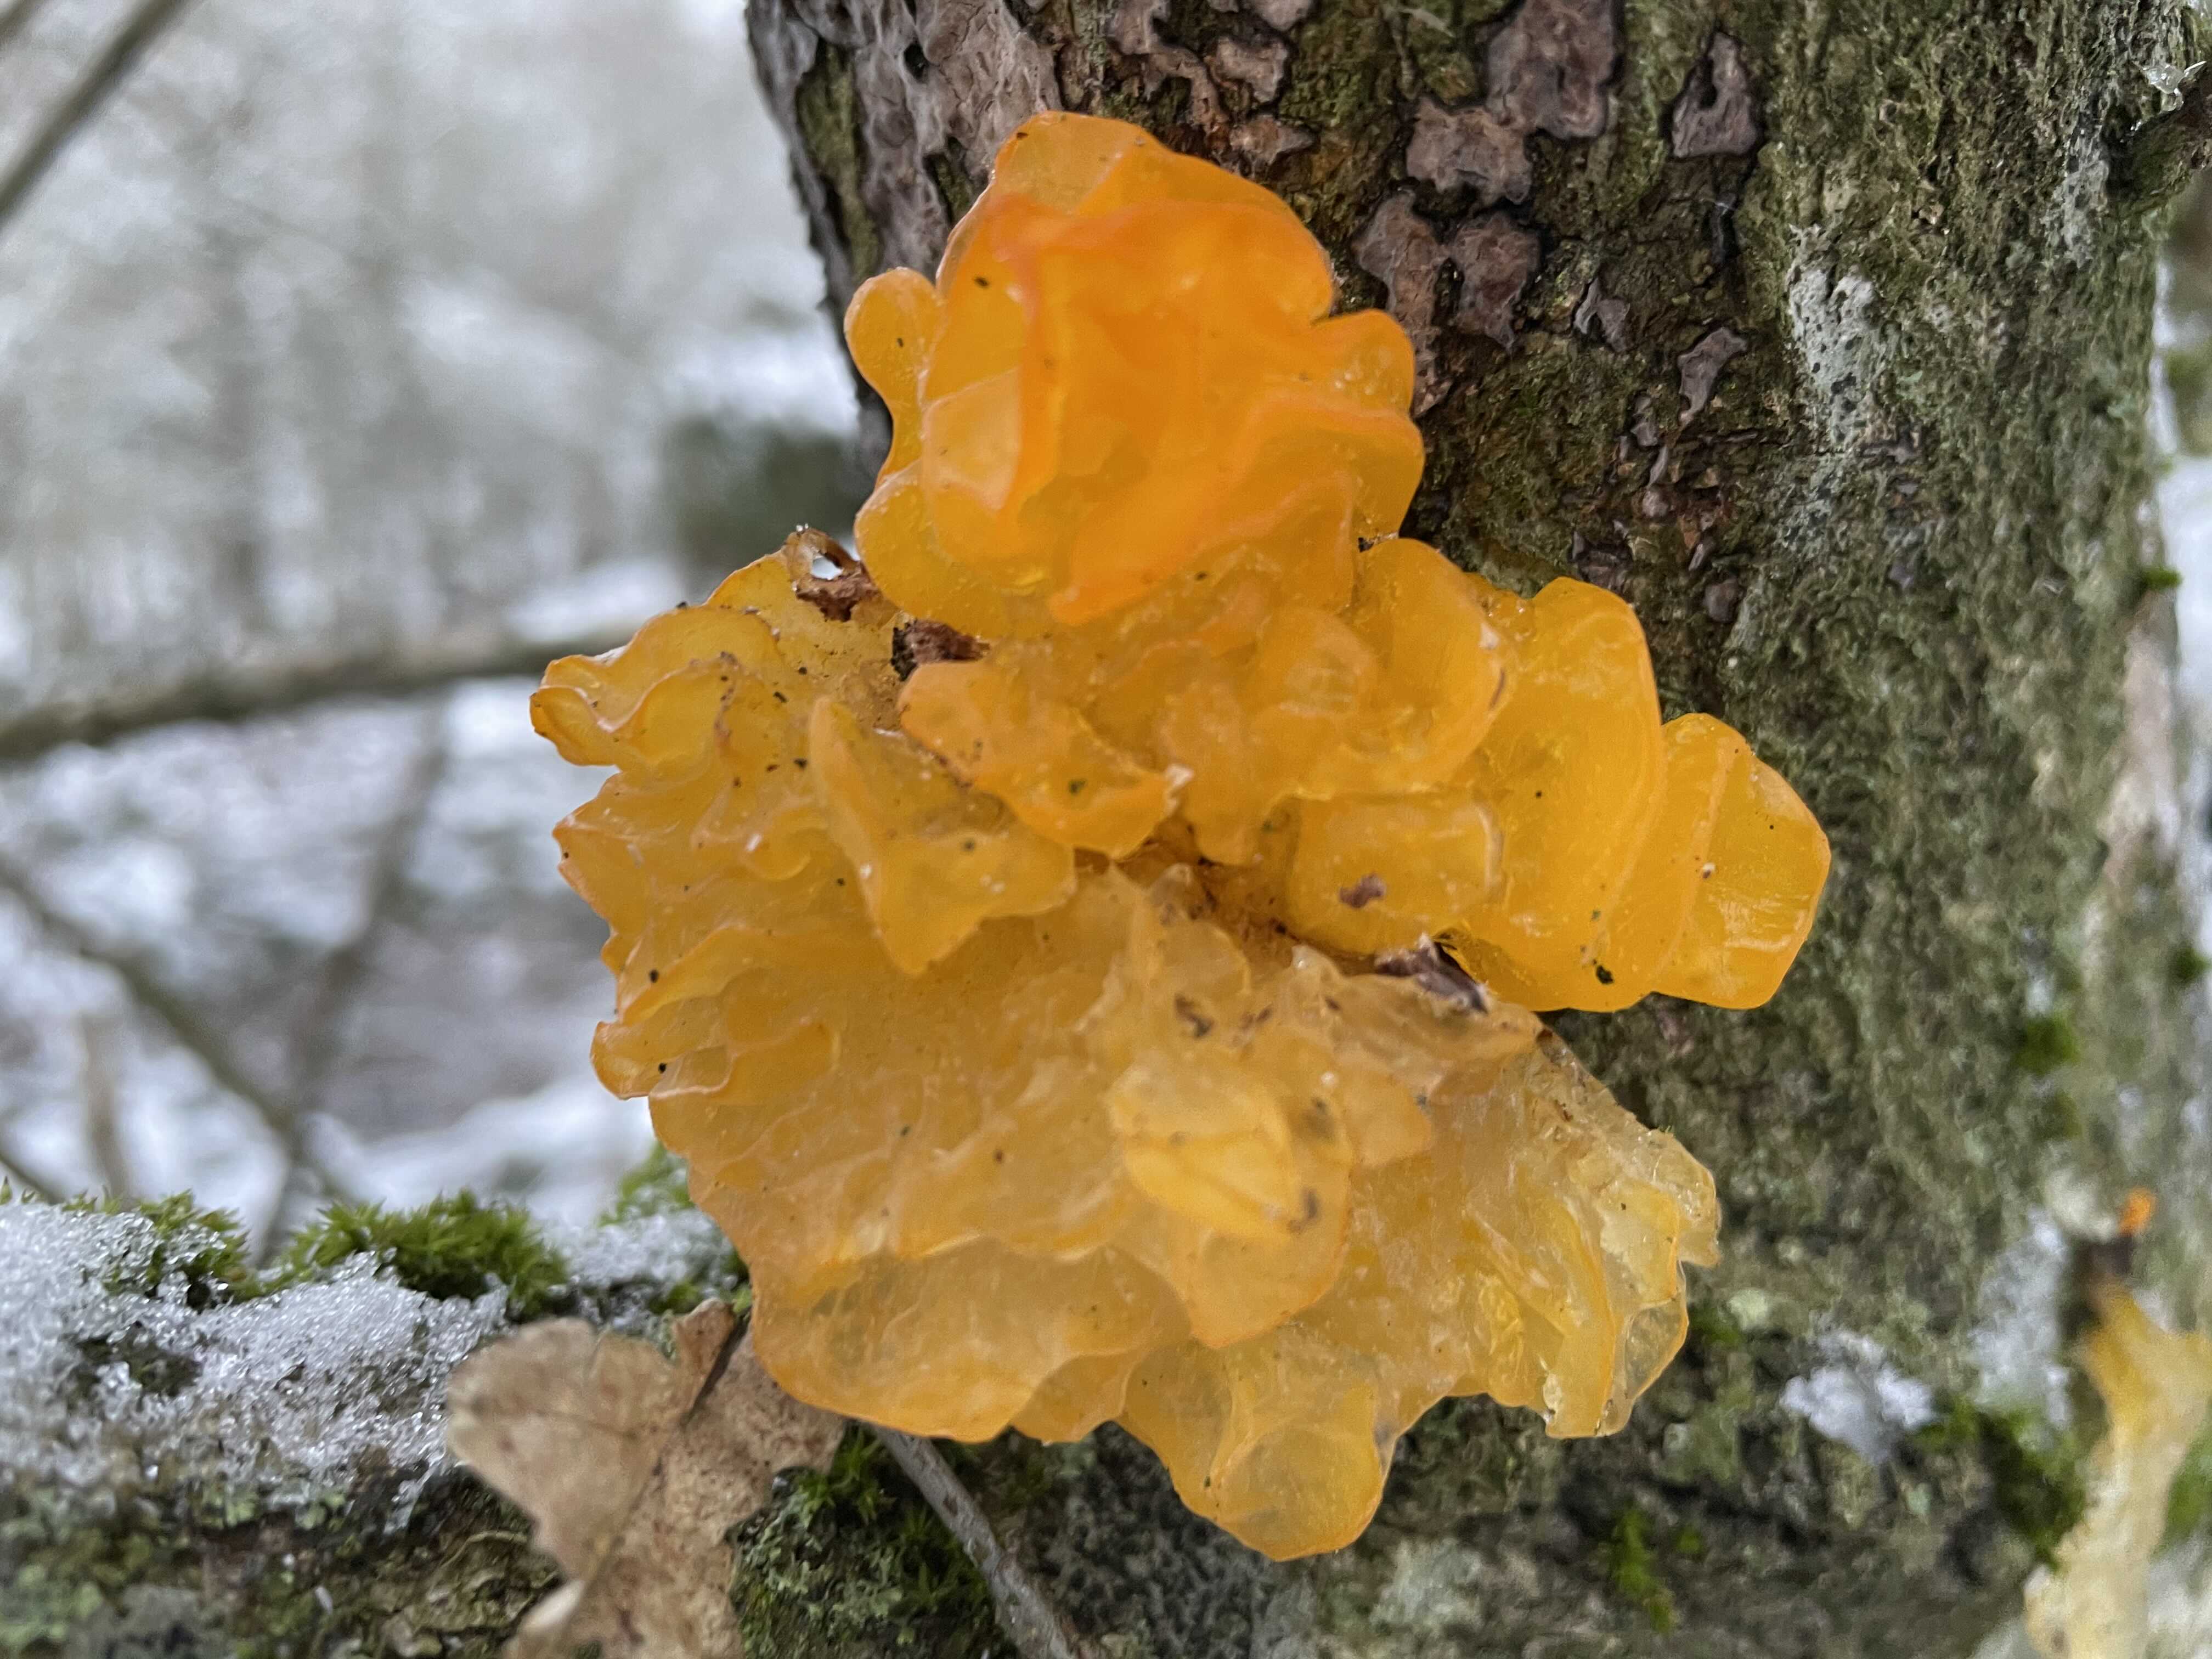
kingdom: Fungi
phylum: Basidiomycota
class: Tremellomycetes
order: Tremellales
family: Tremellaceae
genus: Tremella
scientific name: Tremella mesenterica
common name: gul bævresvamp
